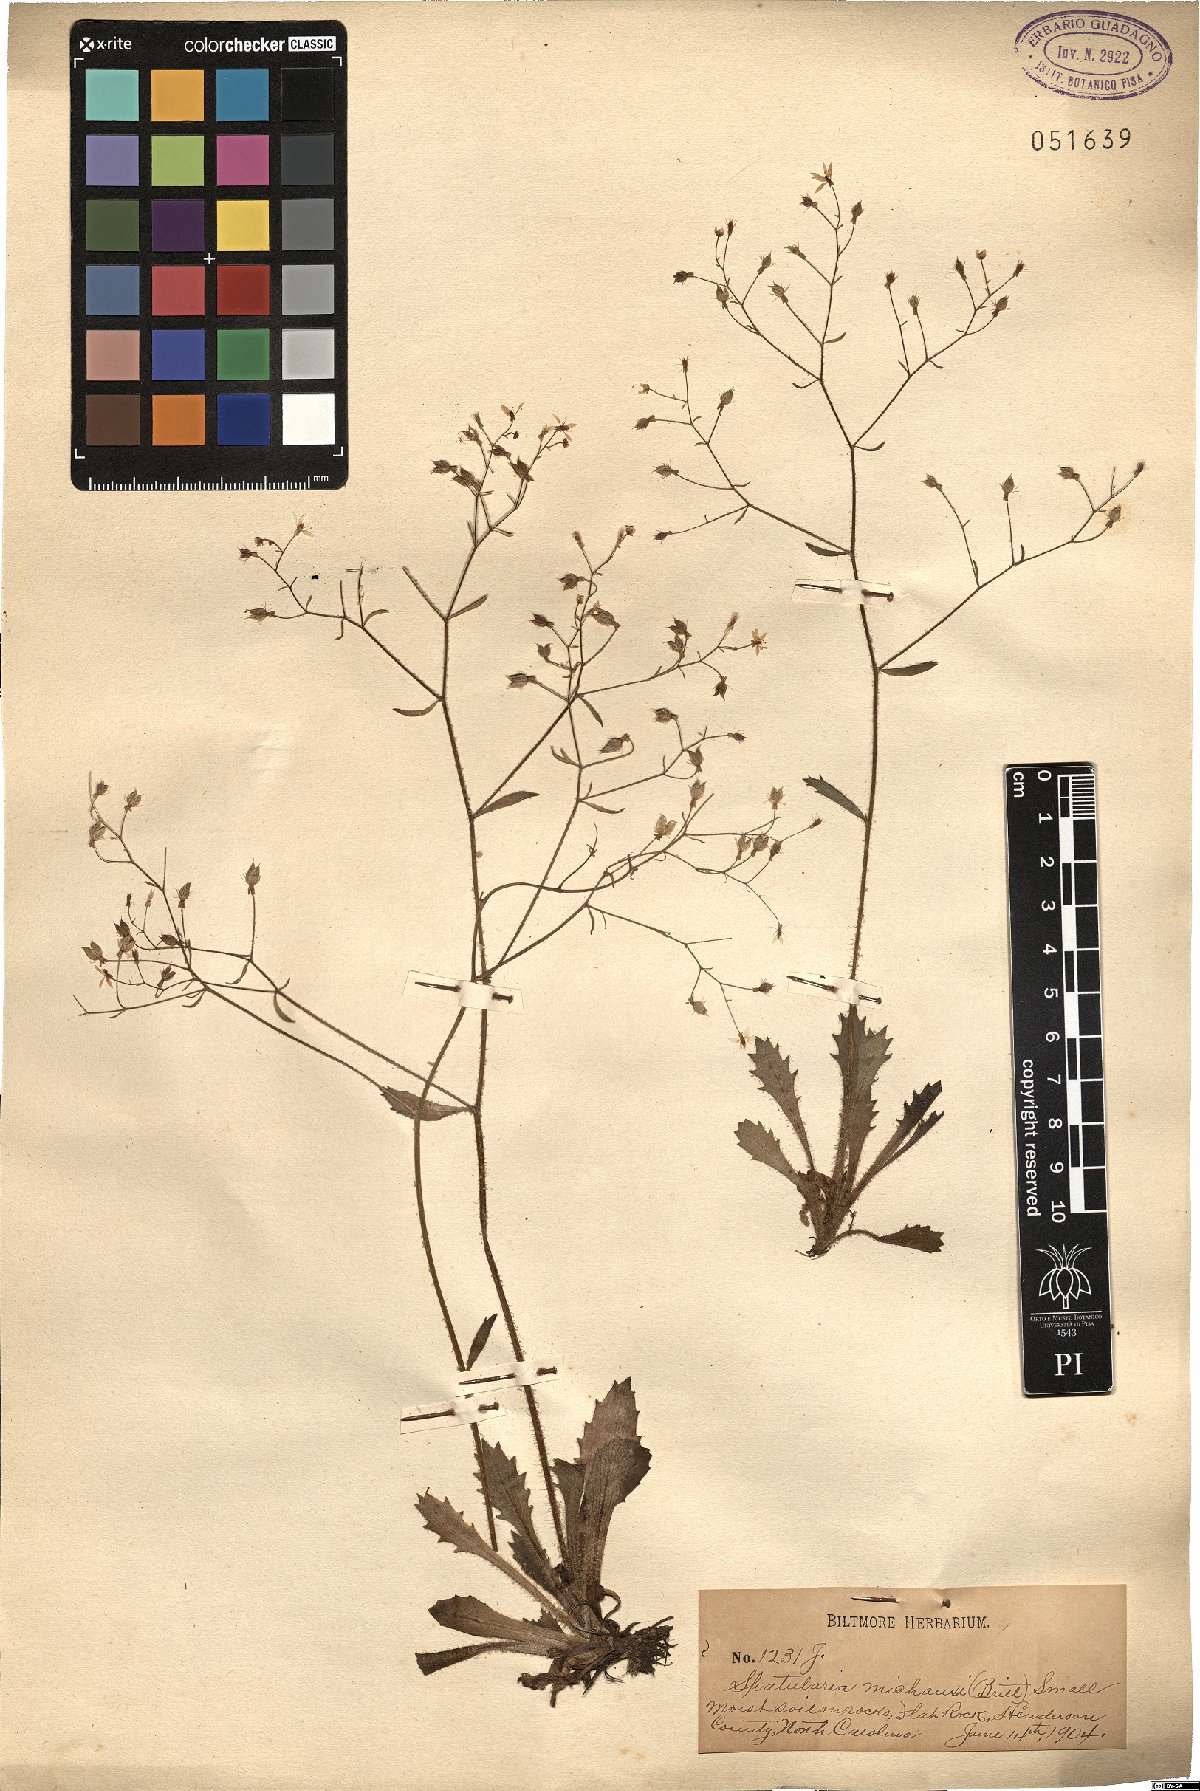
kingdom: Plantae
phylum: Tracheophyta
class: Magnoliopsida
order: Saxifragales
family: Saxifragaceae
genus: Micranthes
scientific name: Micranthes petiolaris
